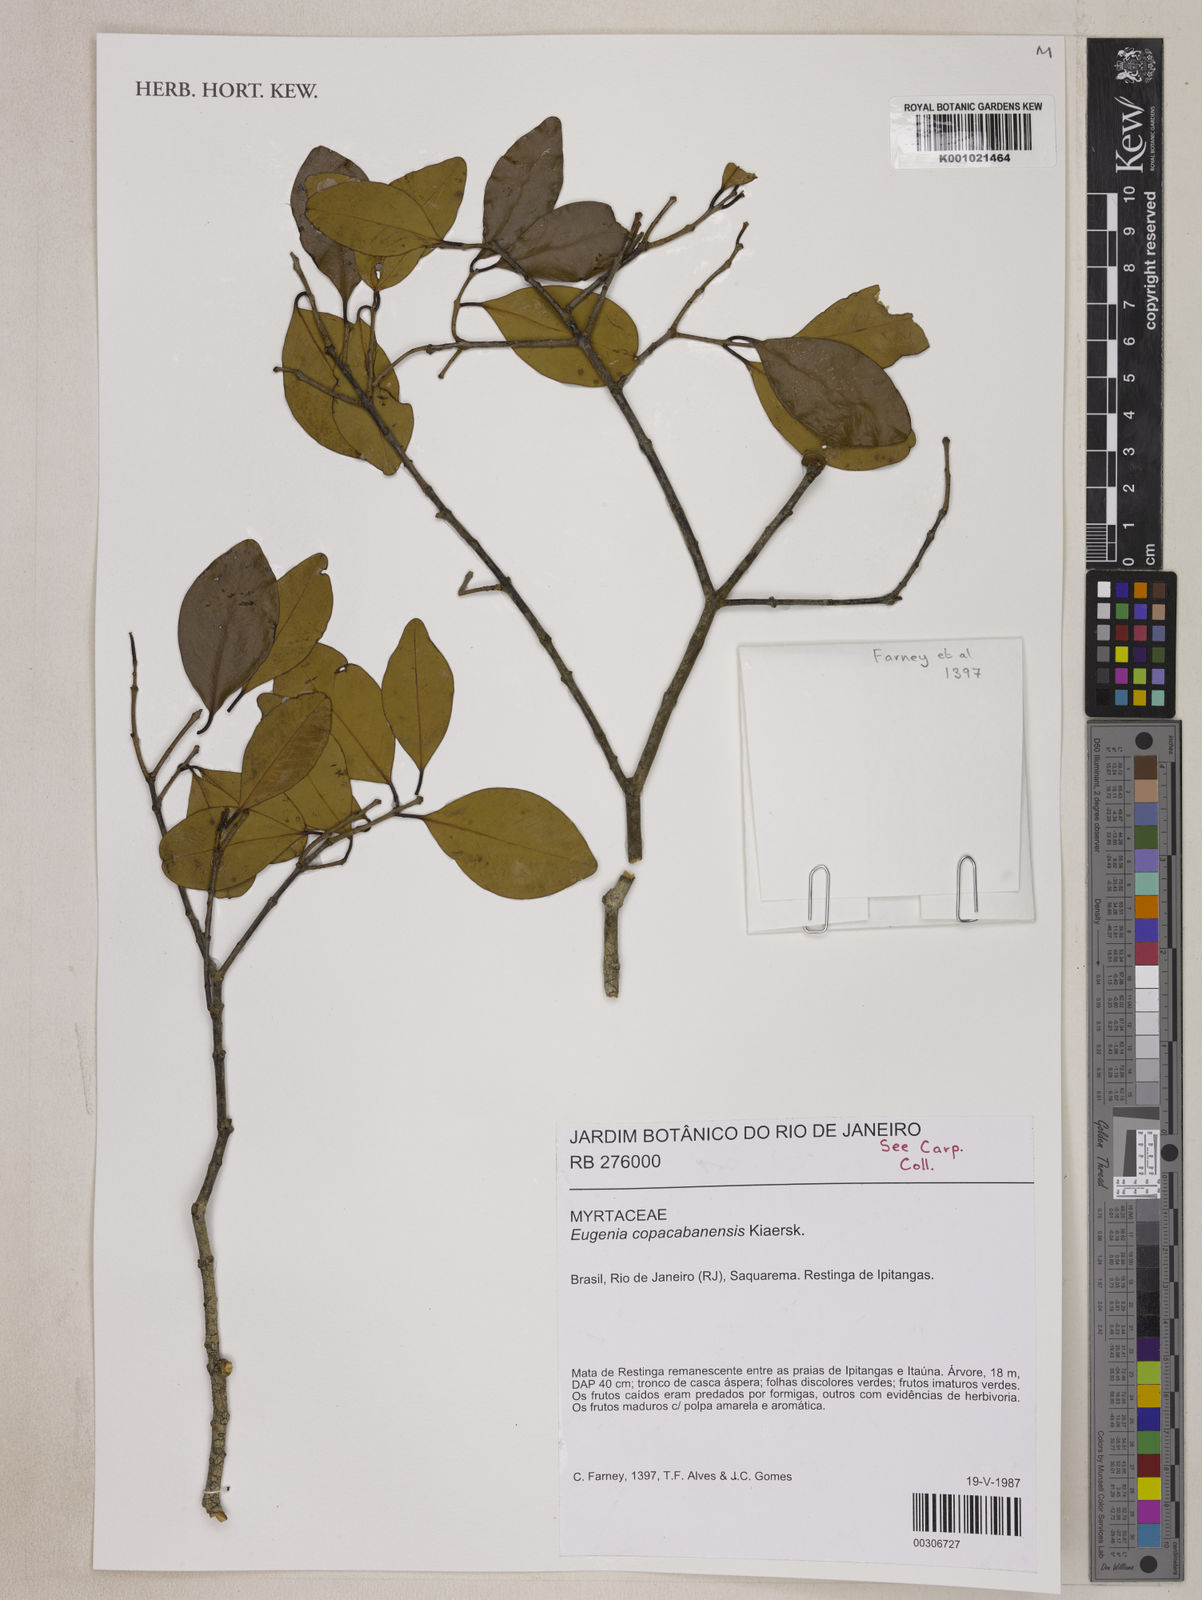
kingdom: Plantae
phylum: Tracheophyta
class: Magnoliopsida
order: Myrtales
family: Myrtaceae
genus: Eugenia
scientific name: Eugenia pruinosa
